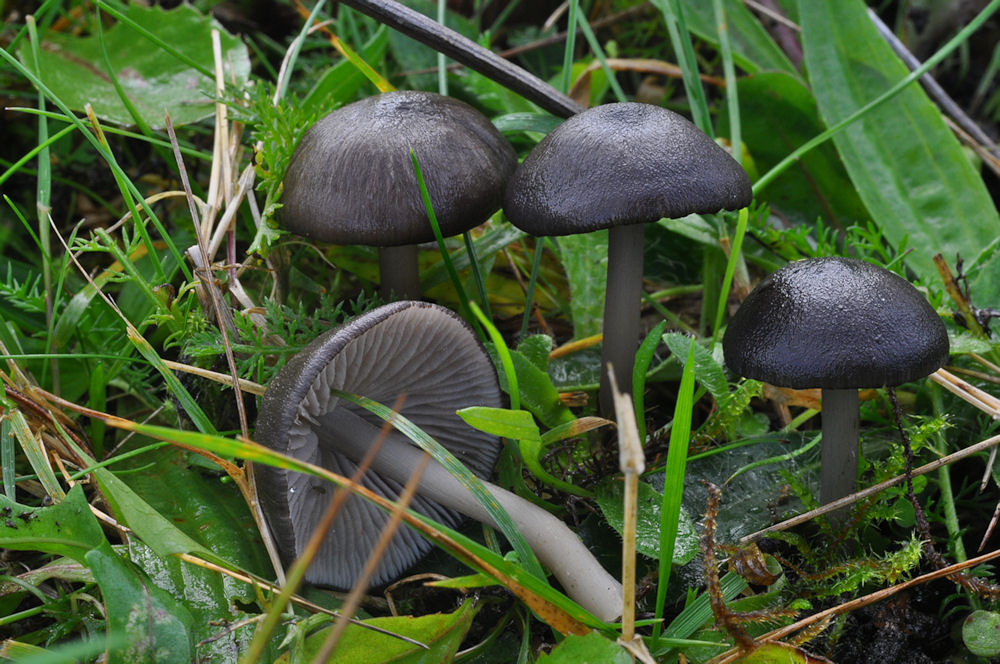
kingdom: Fungi
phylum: Basidiomycota
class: Agaricomycetes
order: Agaricales
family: Entolomataceae
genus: Entoloma
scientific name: Entoloma chalybeum
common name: blåbladet rødblad
